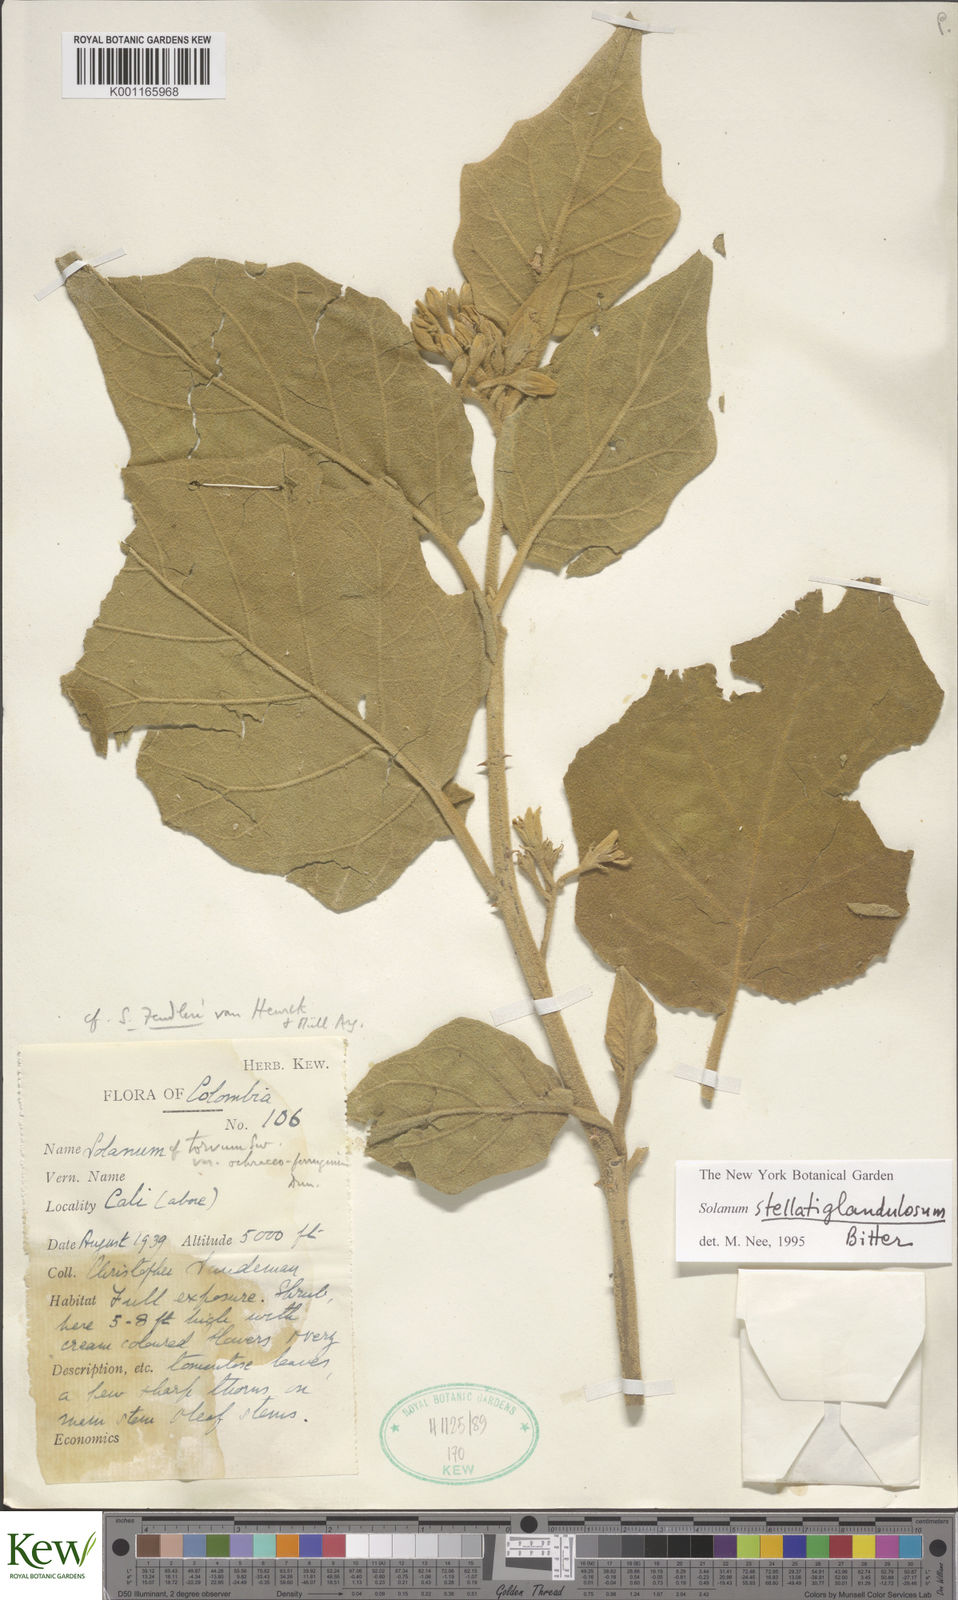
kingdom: Plantae
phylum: Tracheophyta
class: Magnoliopsida
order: Solanales
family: Solanaceae
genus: Solanum
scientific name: Solanum stellatiglandulosum
